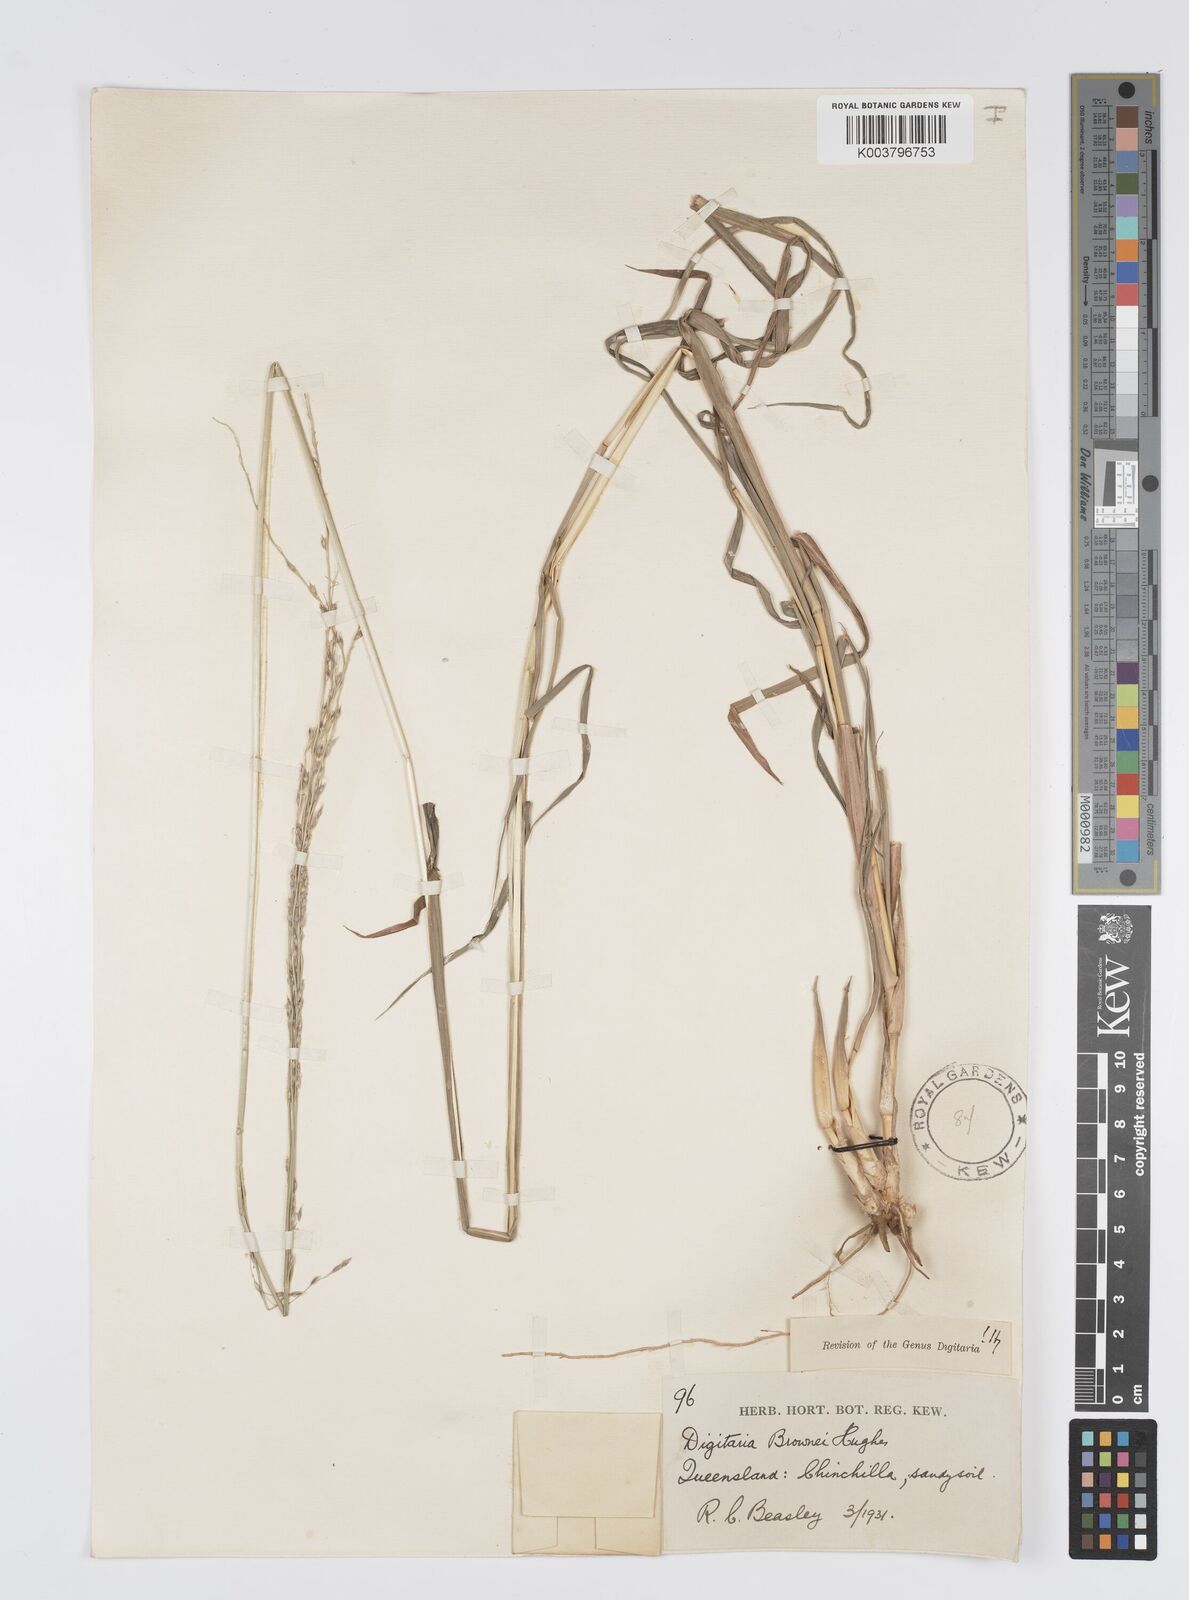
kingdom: Plantae
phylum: Tracheophyta
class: Liliopsida
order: Poales
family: Poaceae
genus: Digitaria
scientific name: Digitaria brownii
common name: Cotton grass
